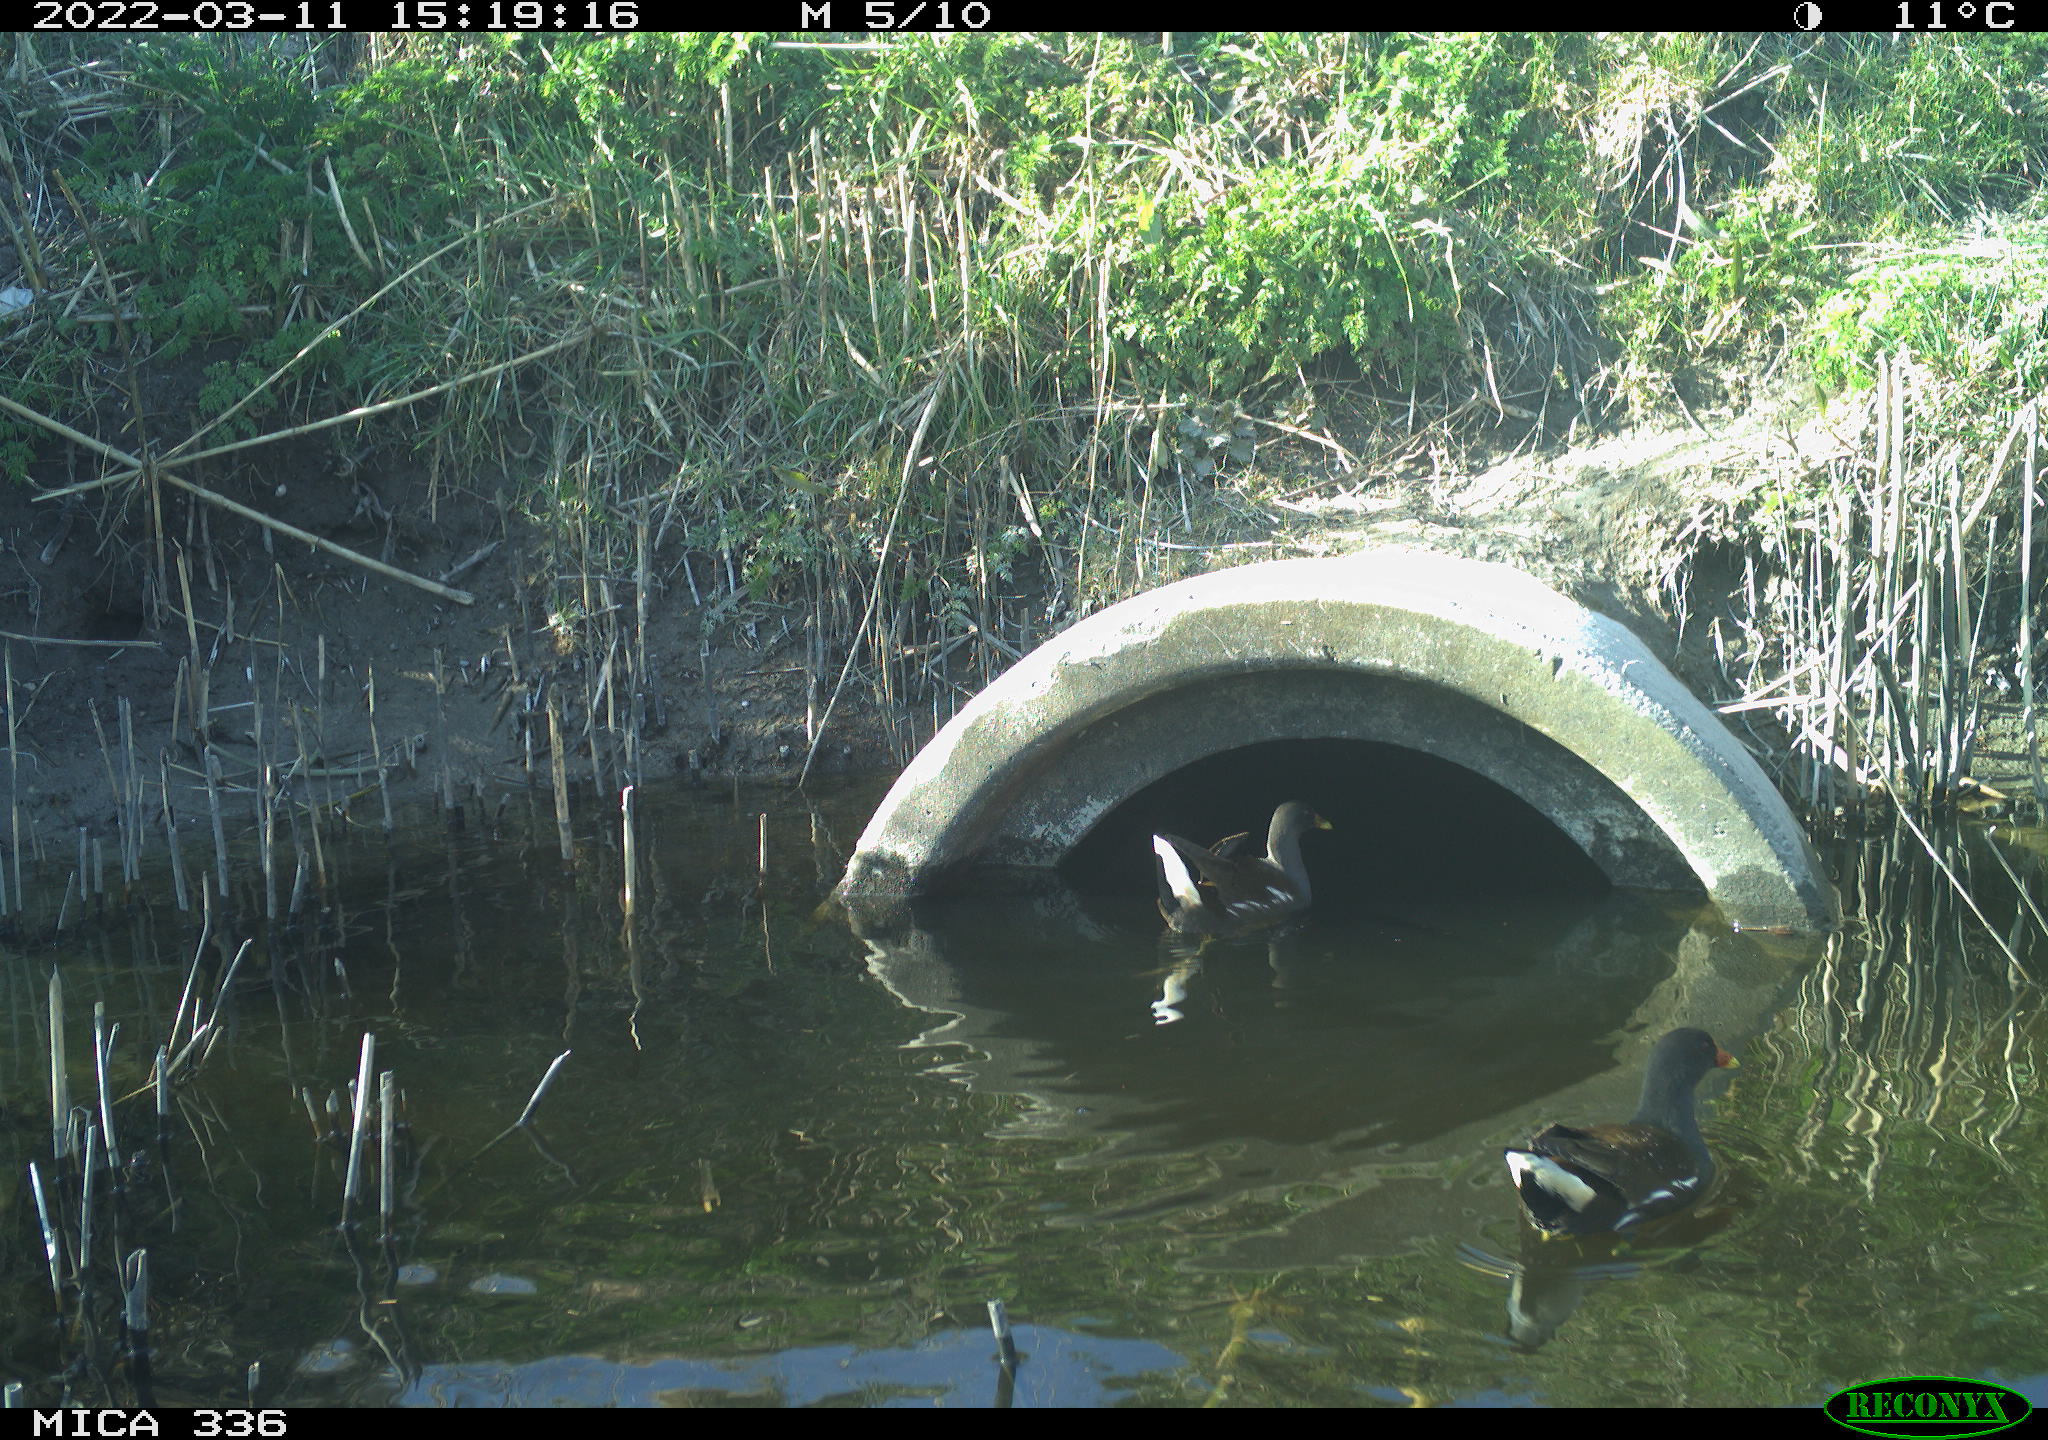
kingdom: Animalia
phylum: Chordata
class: Aves
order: Gruiformes
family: Rallidae
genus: Gallinula
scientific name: Gallinula chloropus
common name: Common moorhen
